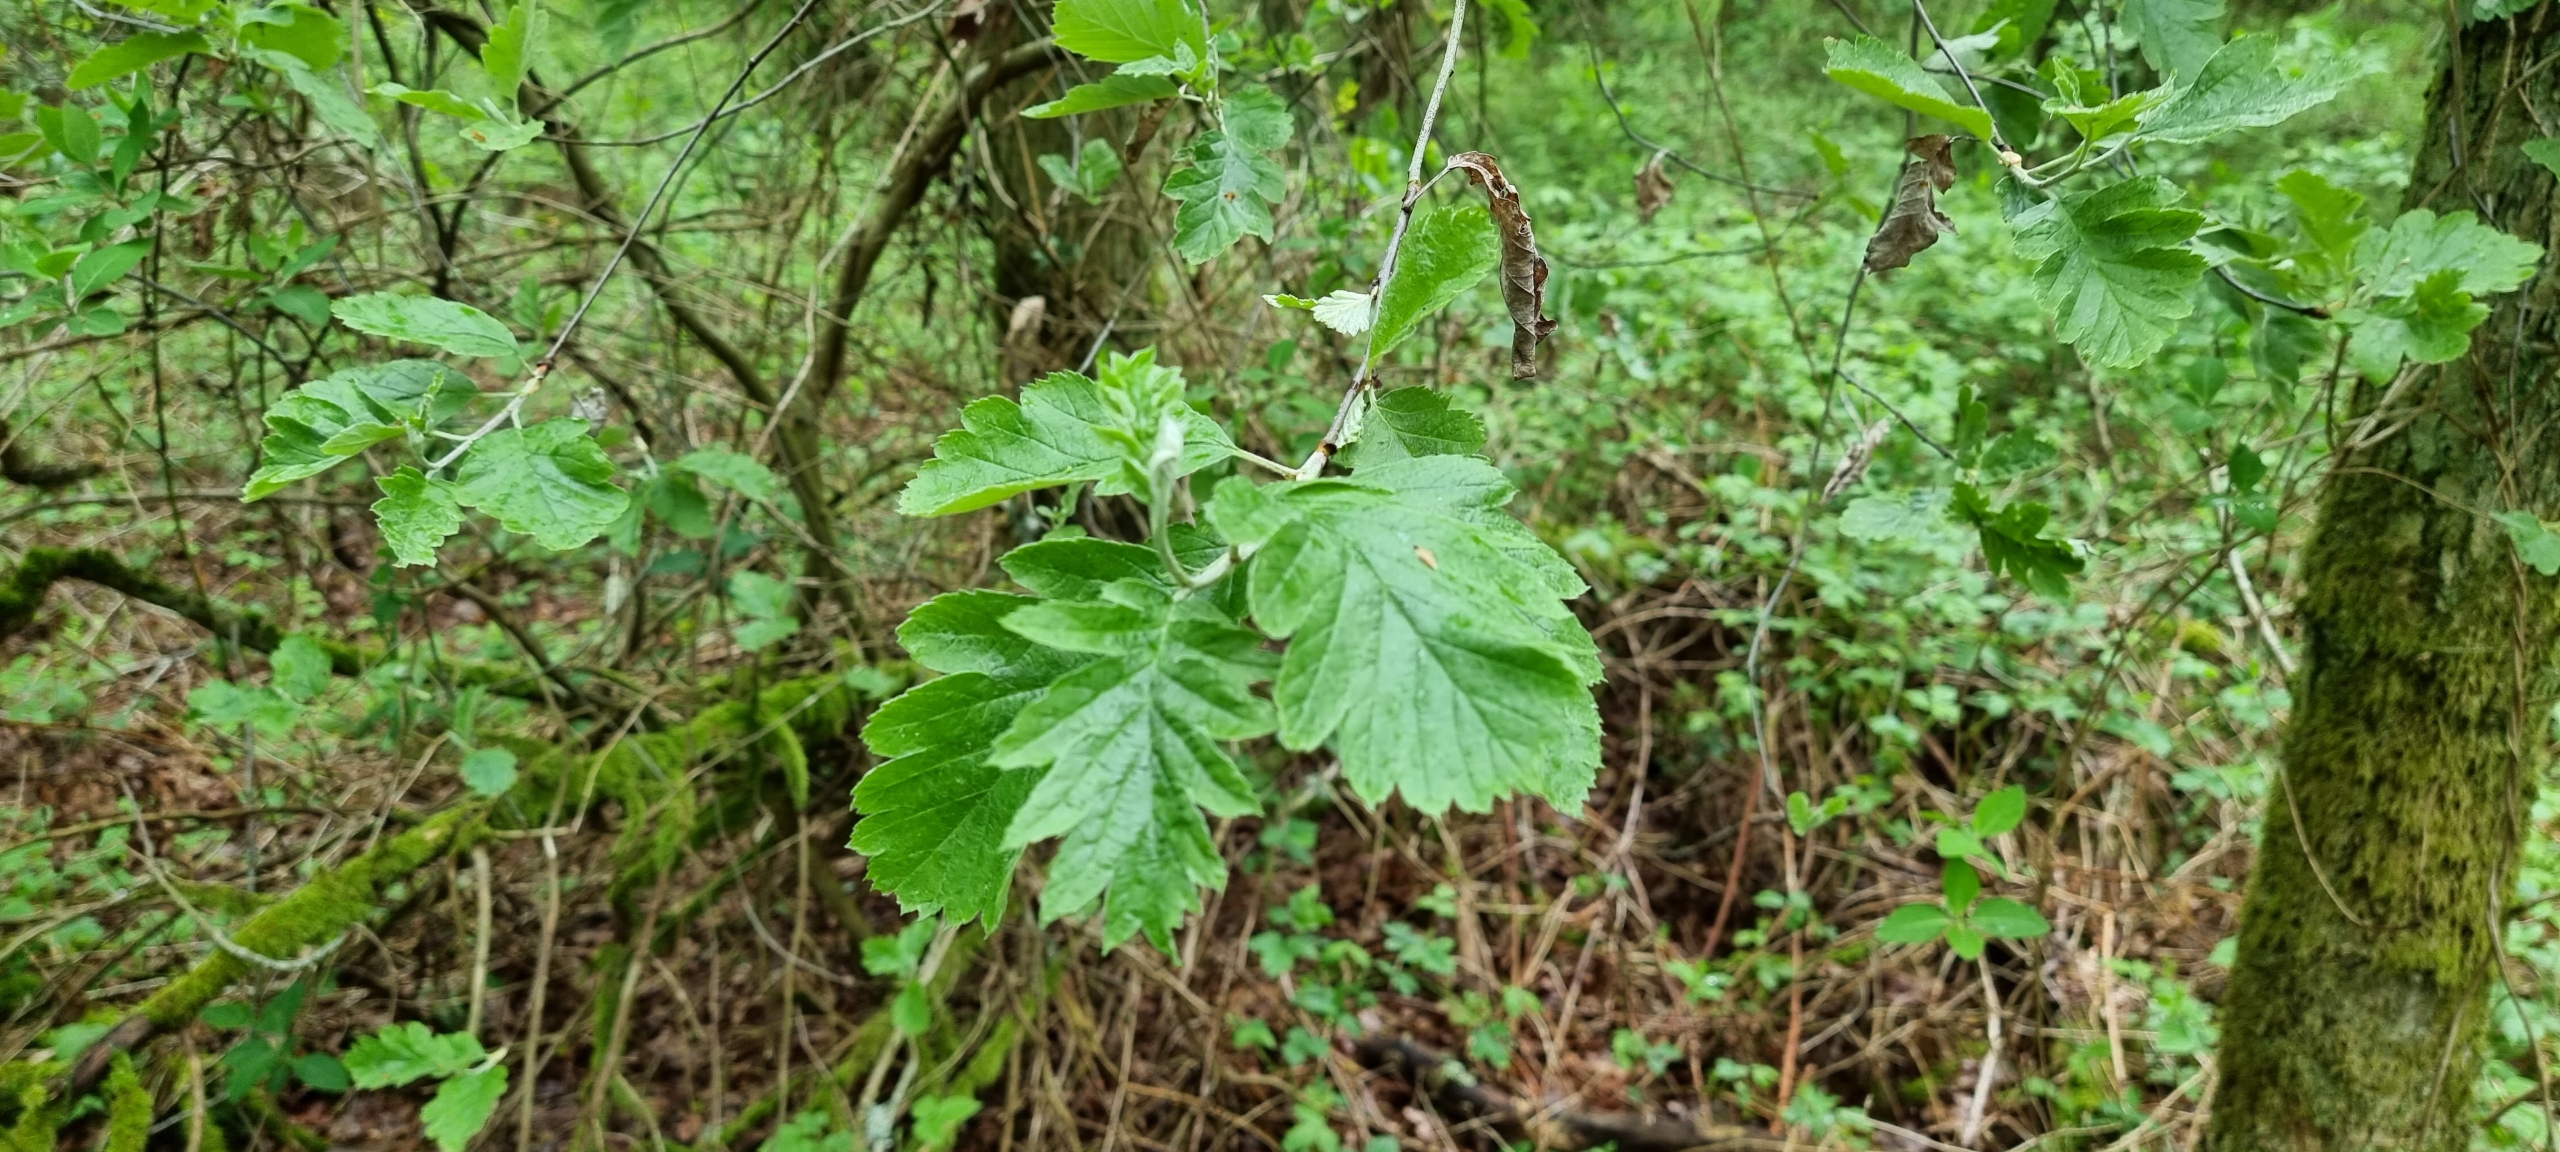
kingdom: Plantae
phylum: Tracheophyta
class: Magnoliopsida
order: Rosales
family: Rosaceae
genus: Scandosorbus
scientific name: Scandosorbus intermedia
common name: Selje-røn
